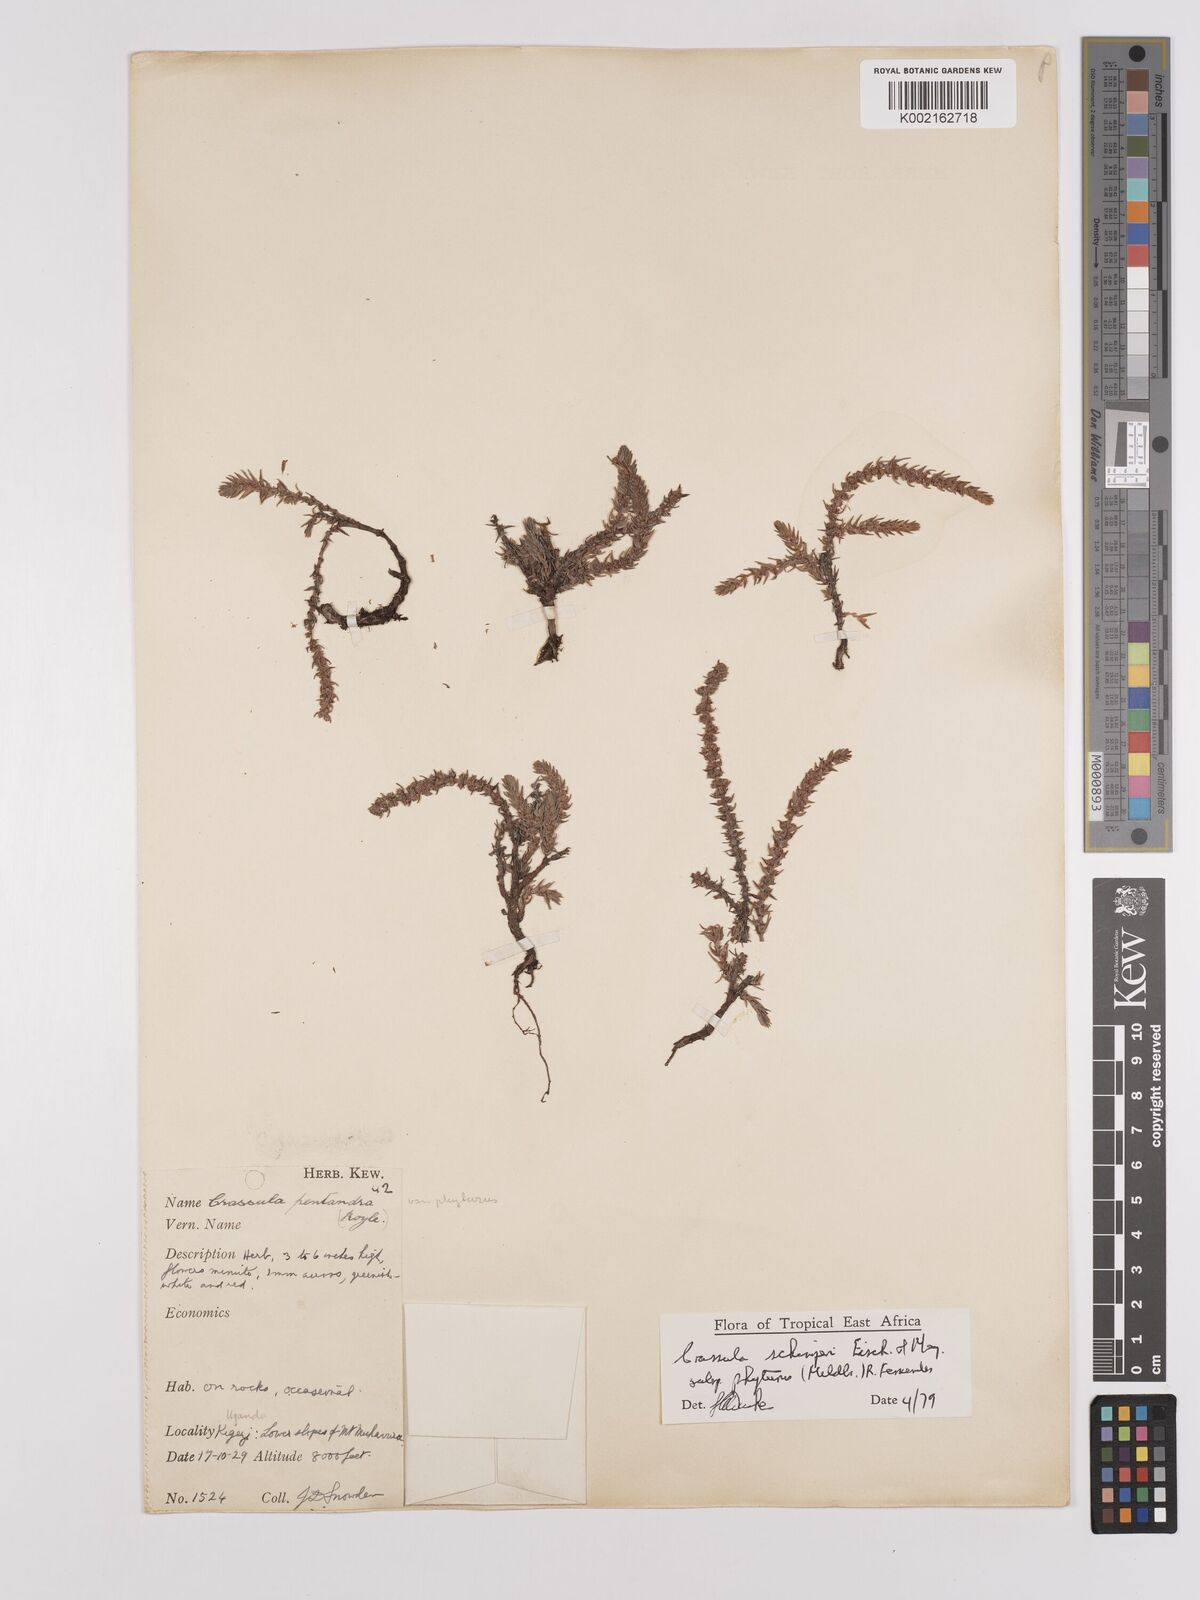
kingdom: Plantae
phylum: Tracheophyta
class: Magnoliopsida
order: Saxifragales
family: Crassulaceae
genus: Crassula
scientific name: Crassula schimperi
